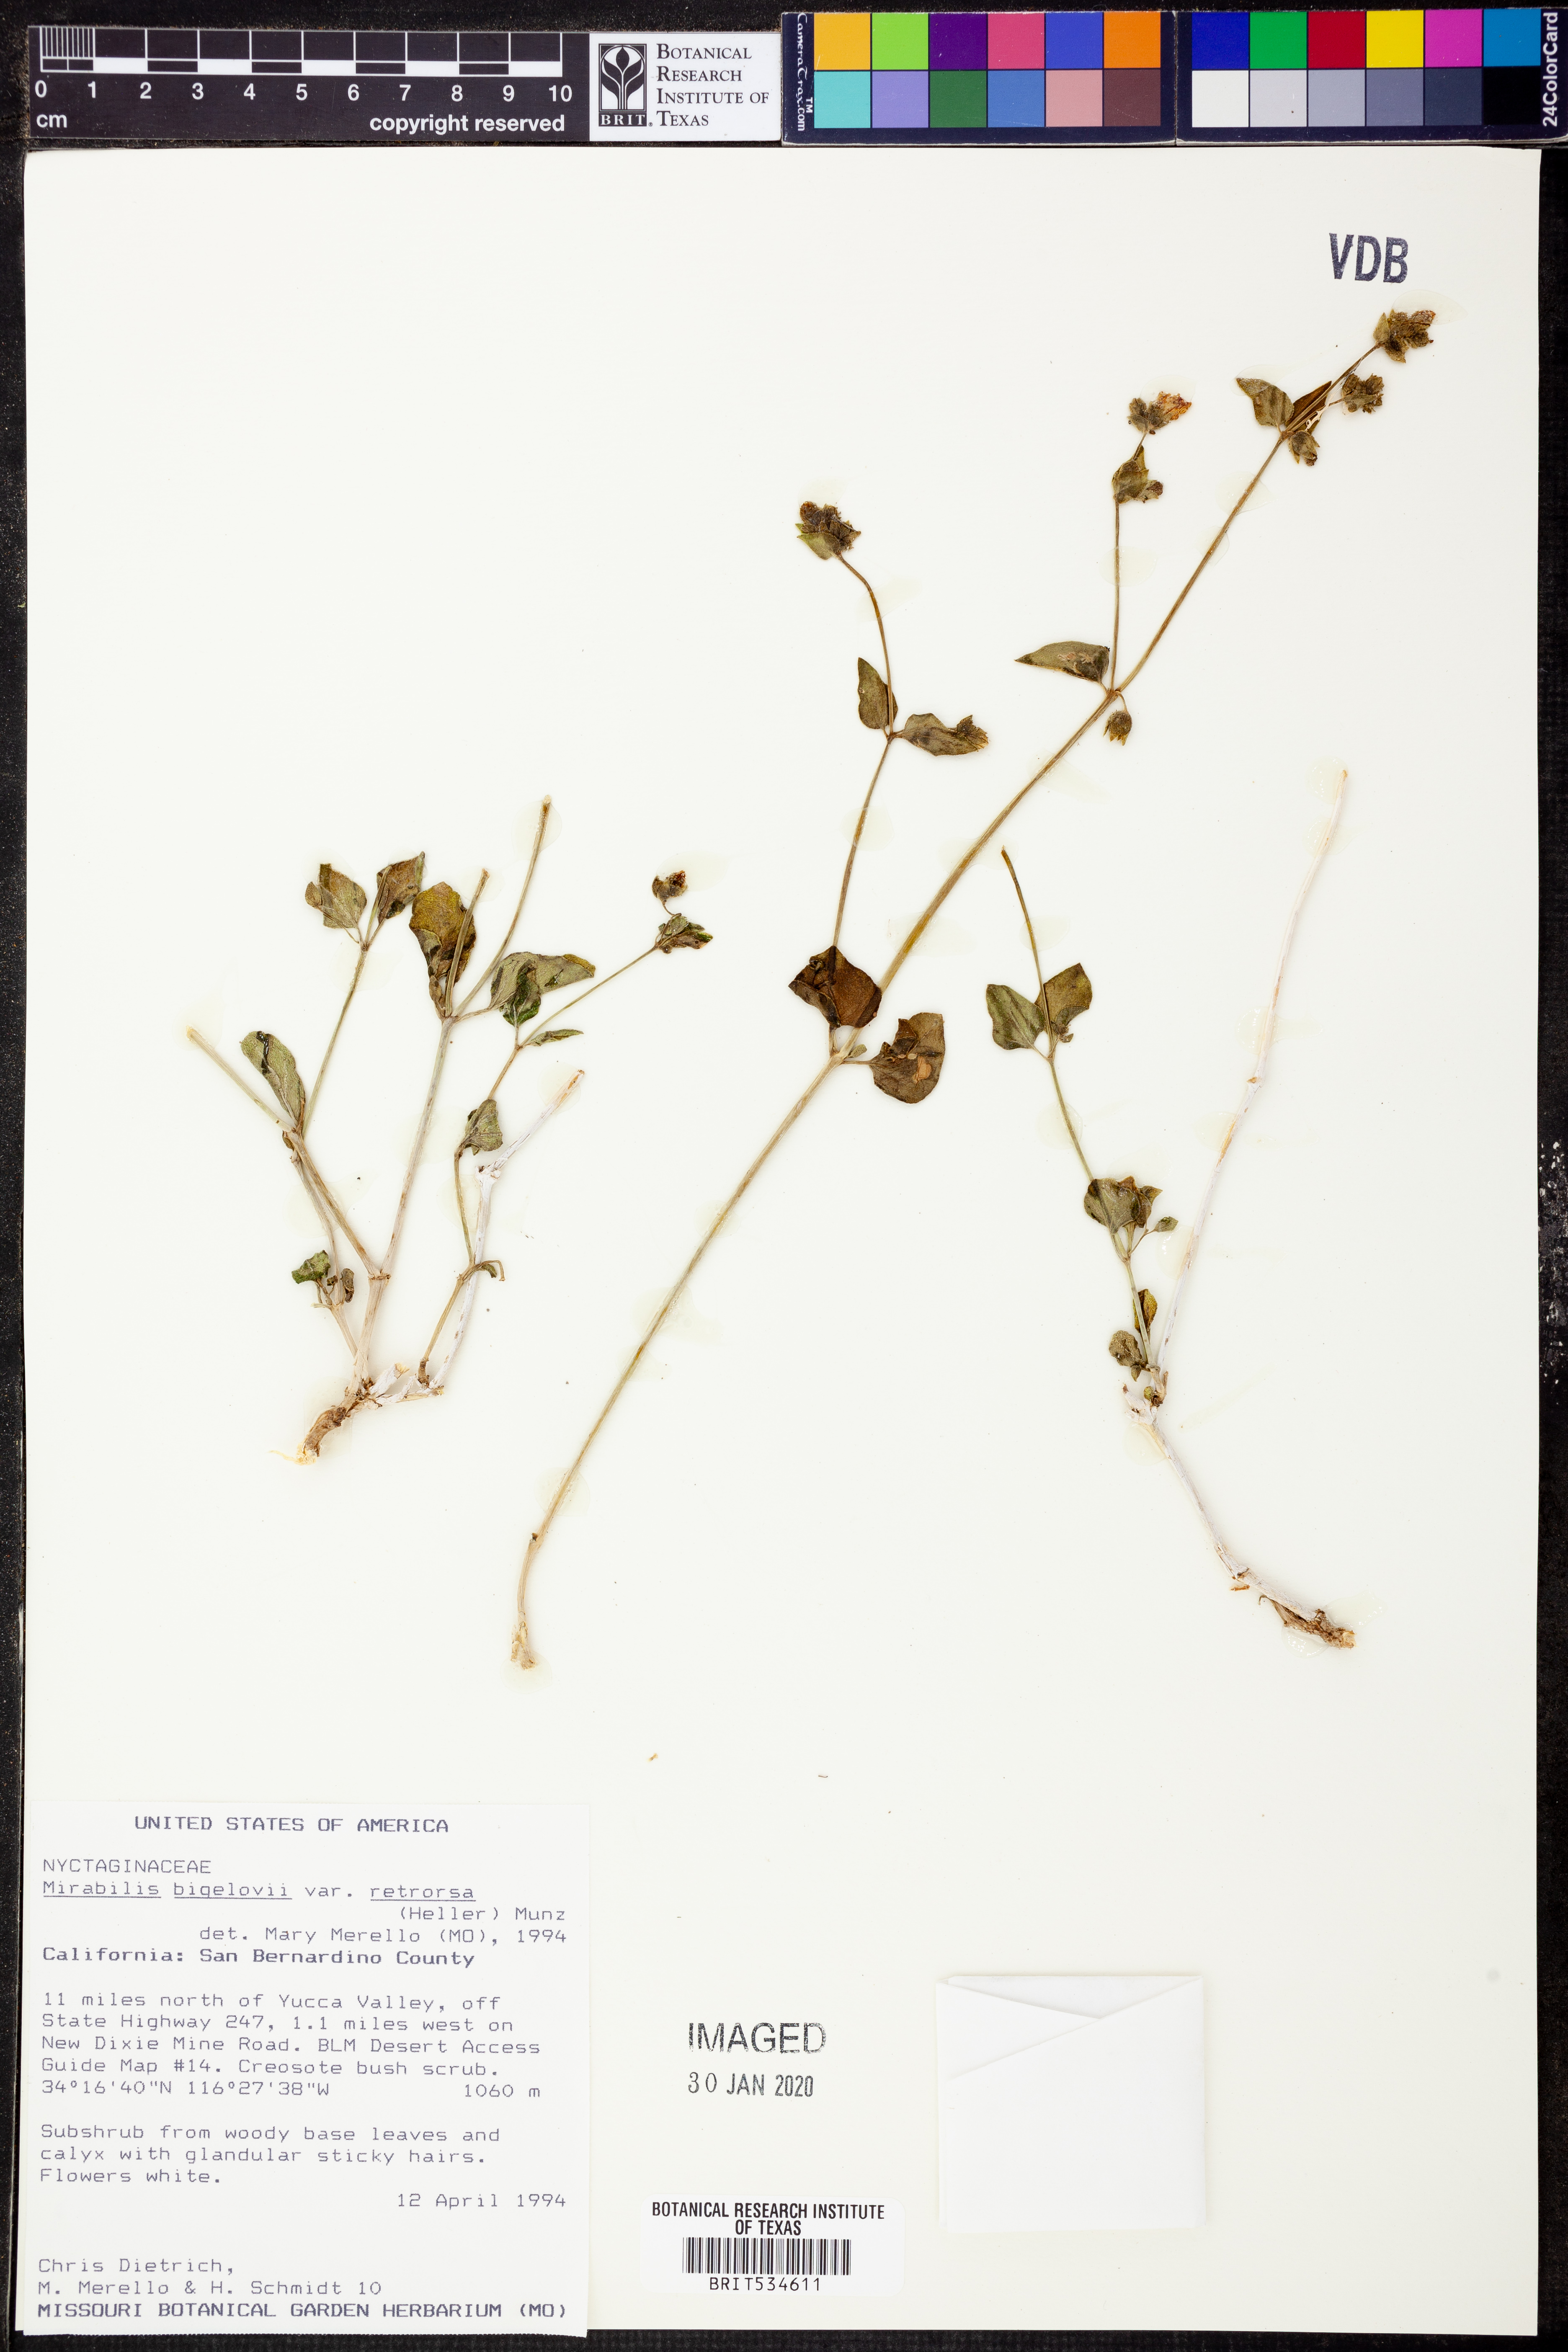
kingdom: Plantae
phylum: Tracheophyta
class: Magnoliopsida
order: Caryophyllales
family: Nyctaginaceae
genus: Mirabilis
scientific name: Mirabilis laevis
